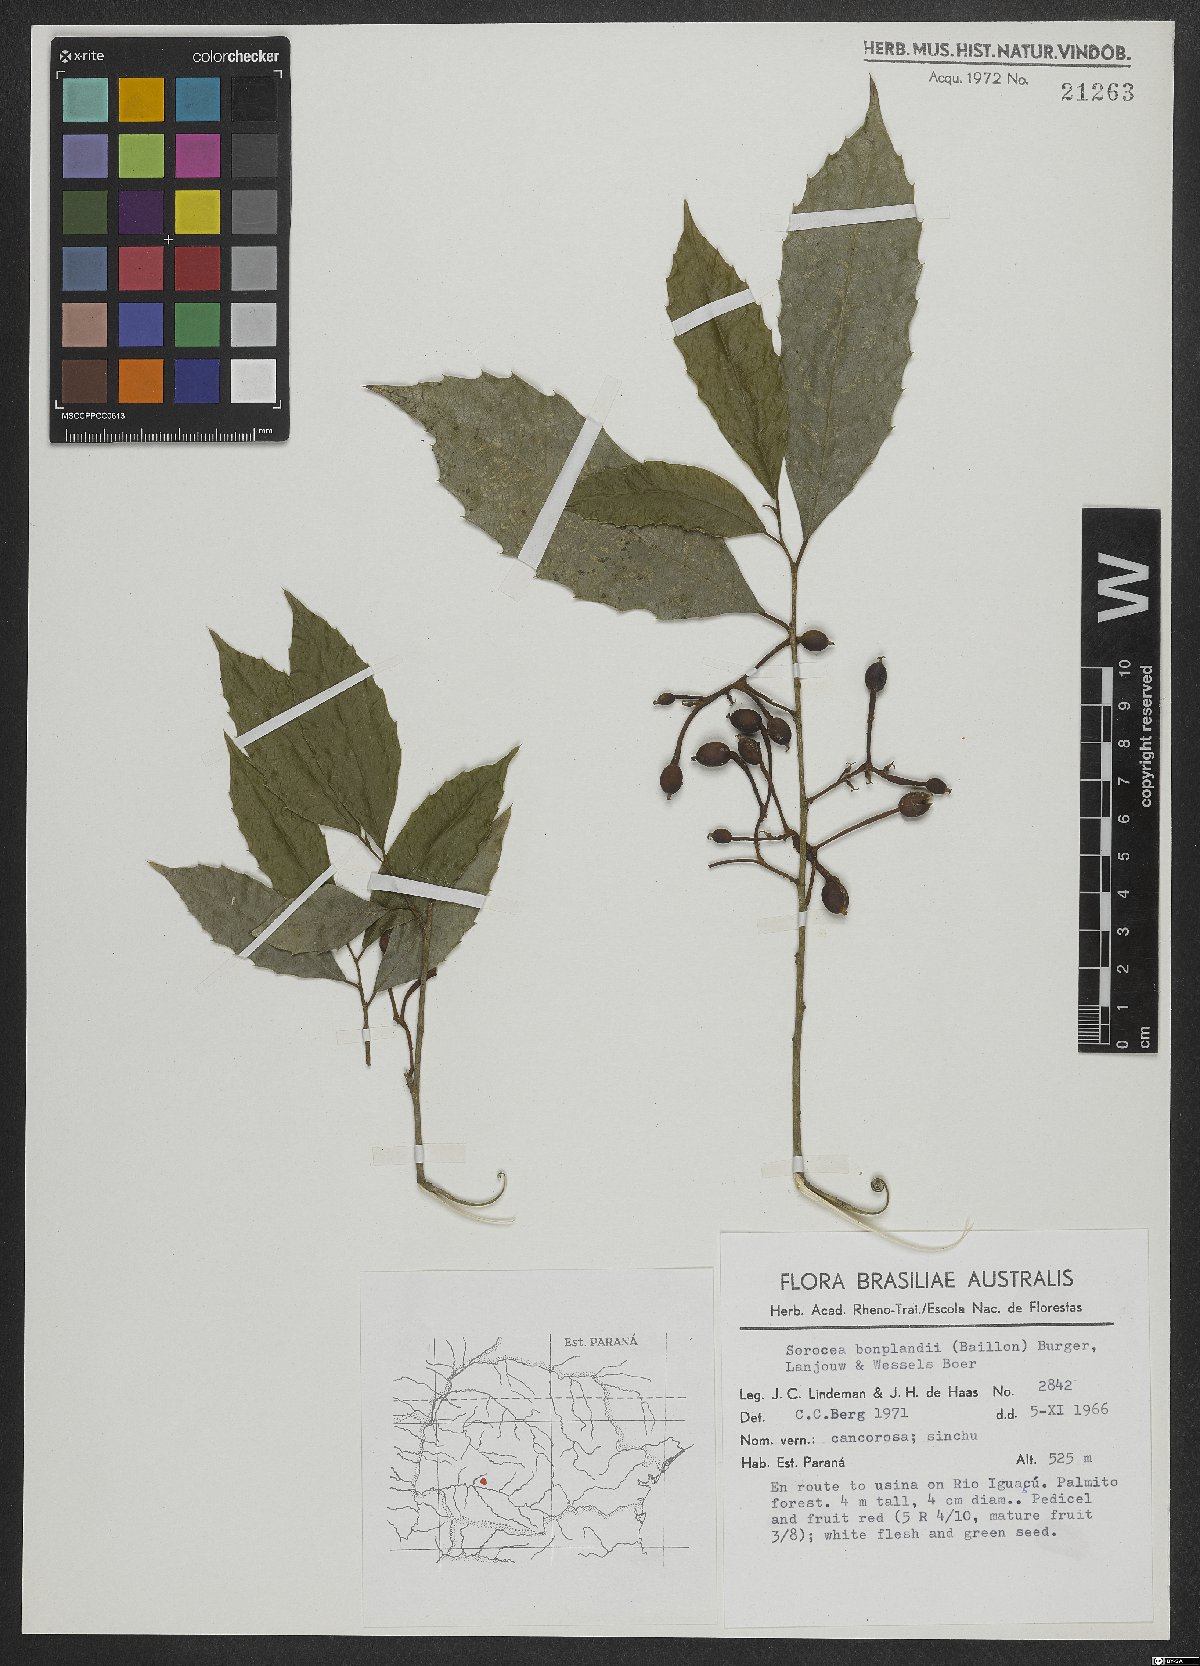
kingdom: Plantae
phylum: Tracheophyta
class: Magnoliopsida
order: Rosales
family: Moraceae
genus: Sorocea
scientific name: Sorocea bonplandii
